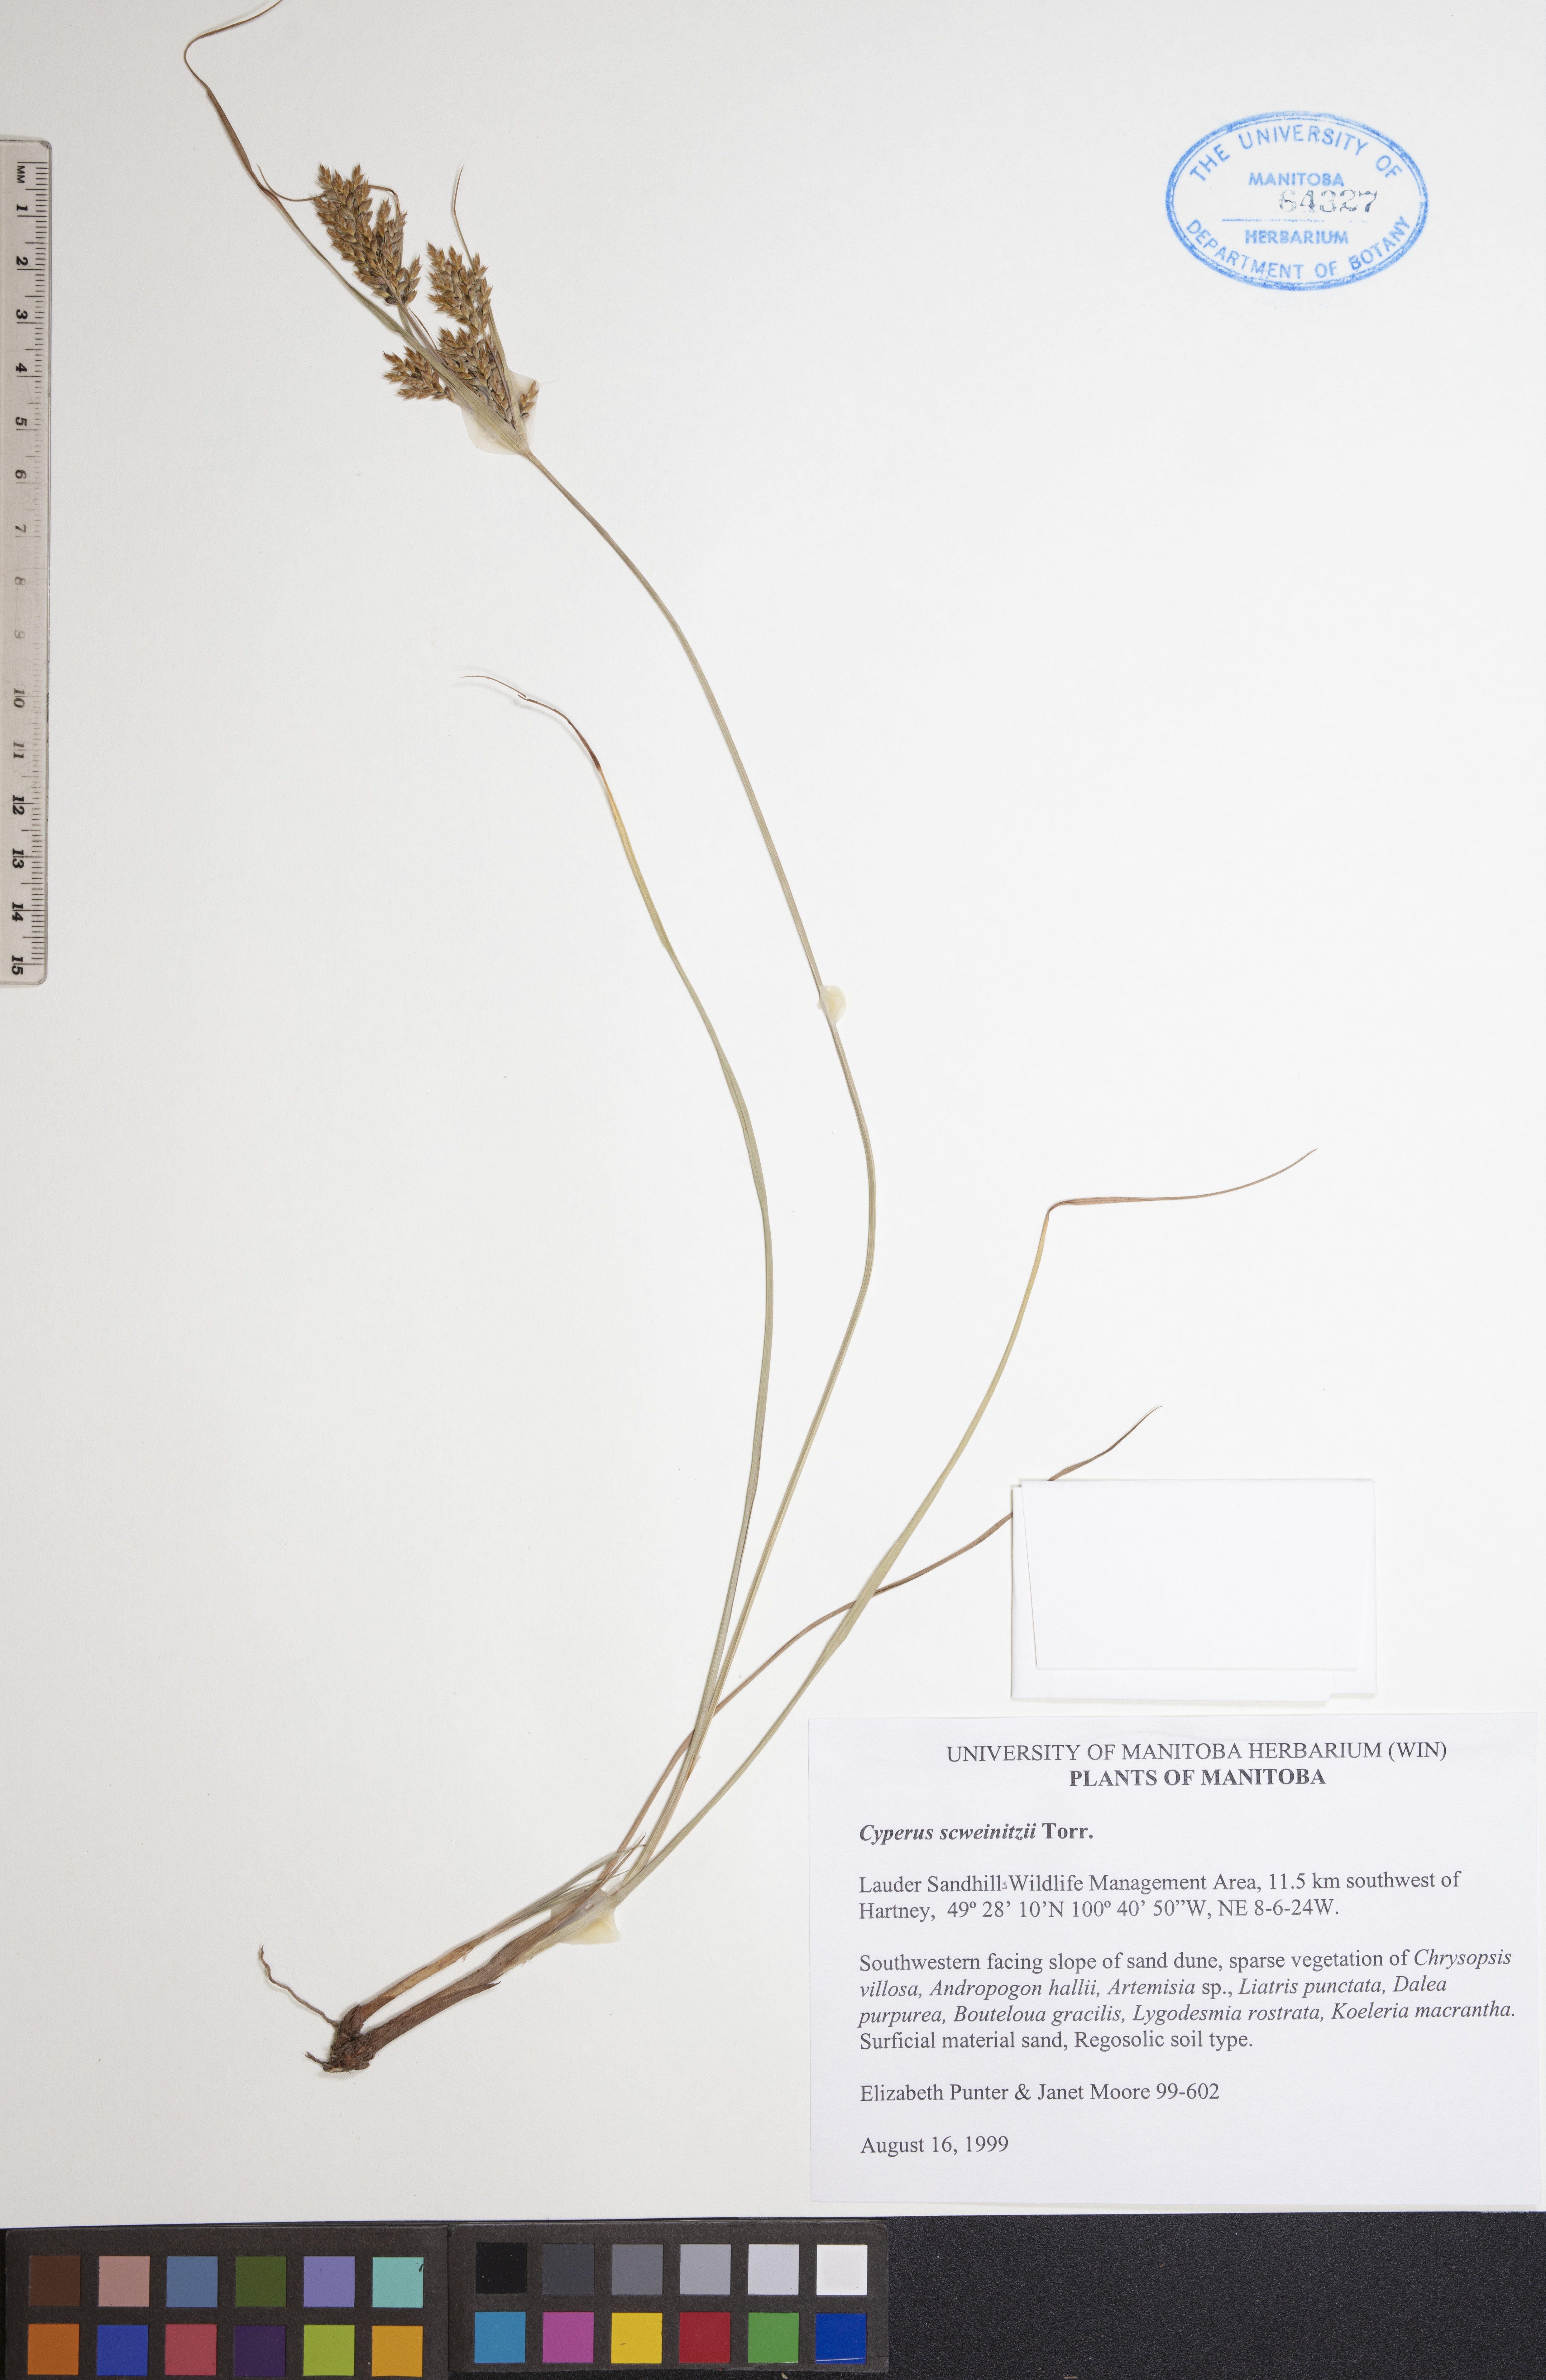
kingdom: Plantae
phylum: Tracheophyta
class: Liliopsida
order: Poales
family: Cyperaceae
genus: Cyperus
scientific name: Cyperus schweinitzii
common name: Schweinitz's cyperus
